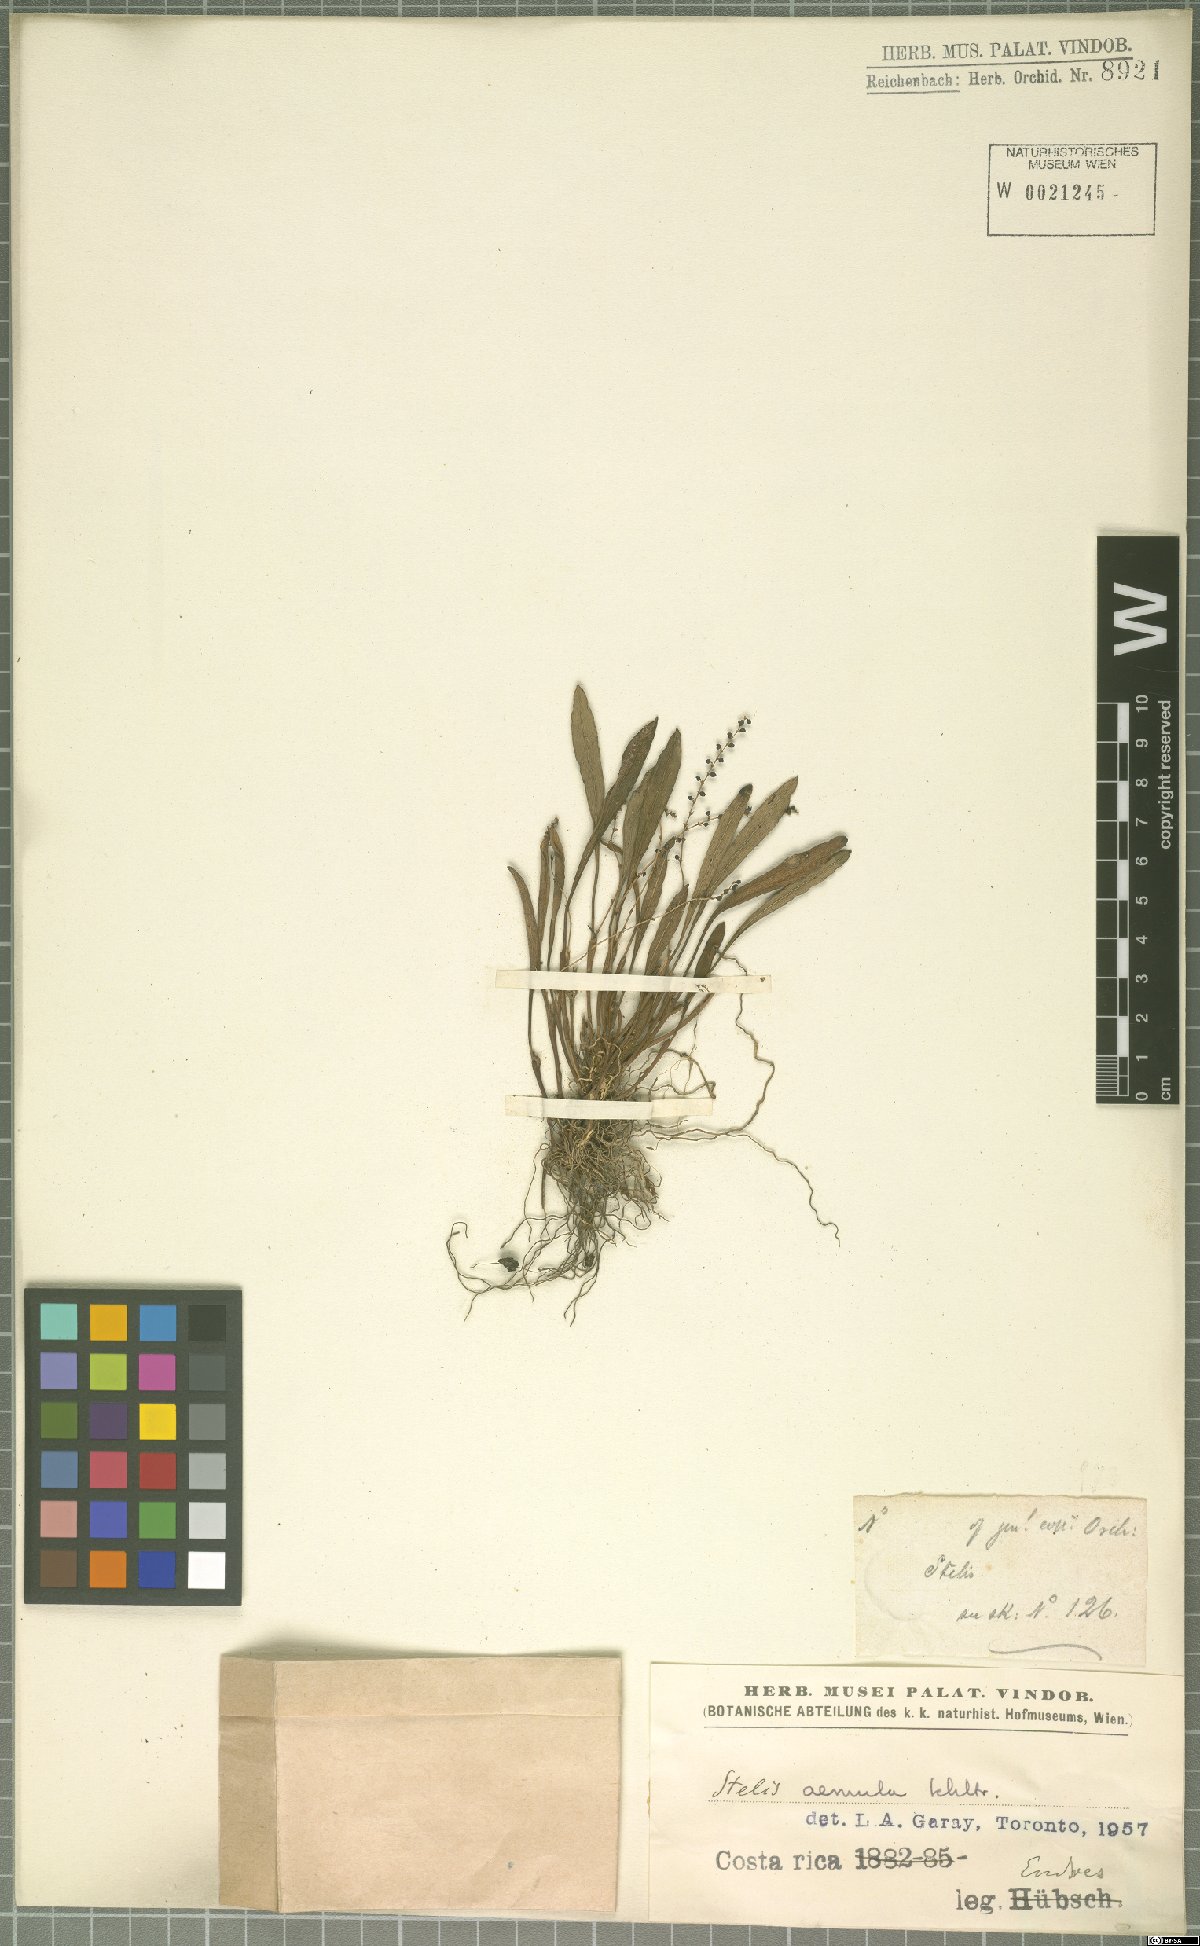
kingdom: Plantae
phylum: Tracheophyta
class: Liliopsida
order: Asparagales
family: Orchidaceae
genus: Stelis
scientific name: Stelis aemula
